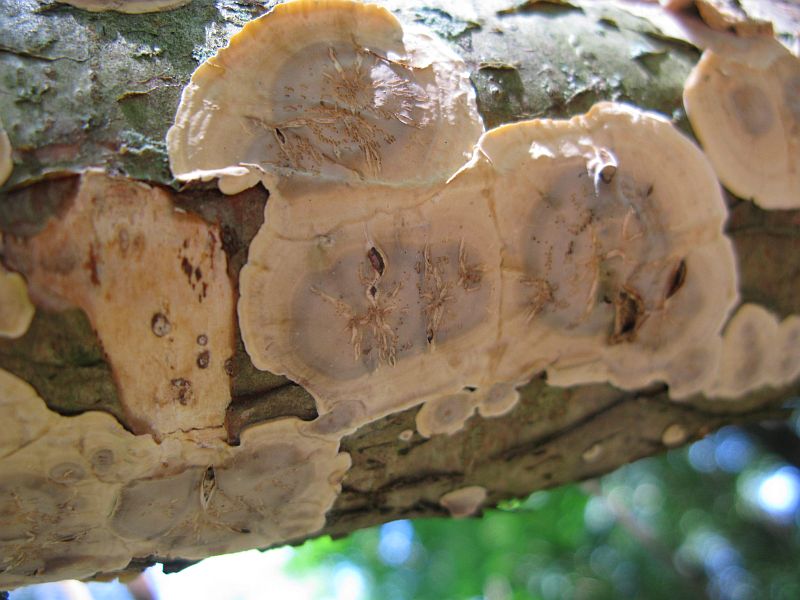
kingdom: Fungi
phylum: Basidiomycota
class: Agaricomycetes
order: Russulales
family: Stereaceae
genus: Stereum
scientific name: Stereum hirsutum
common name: håret lædersvamp
